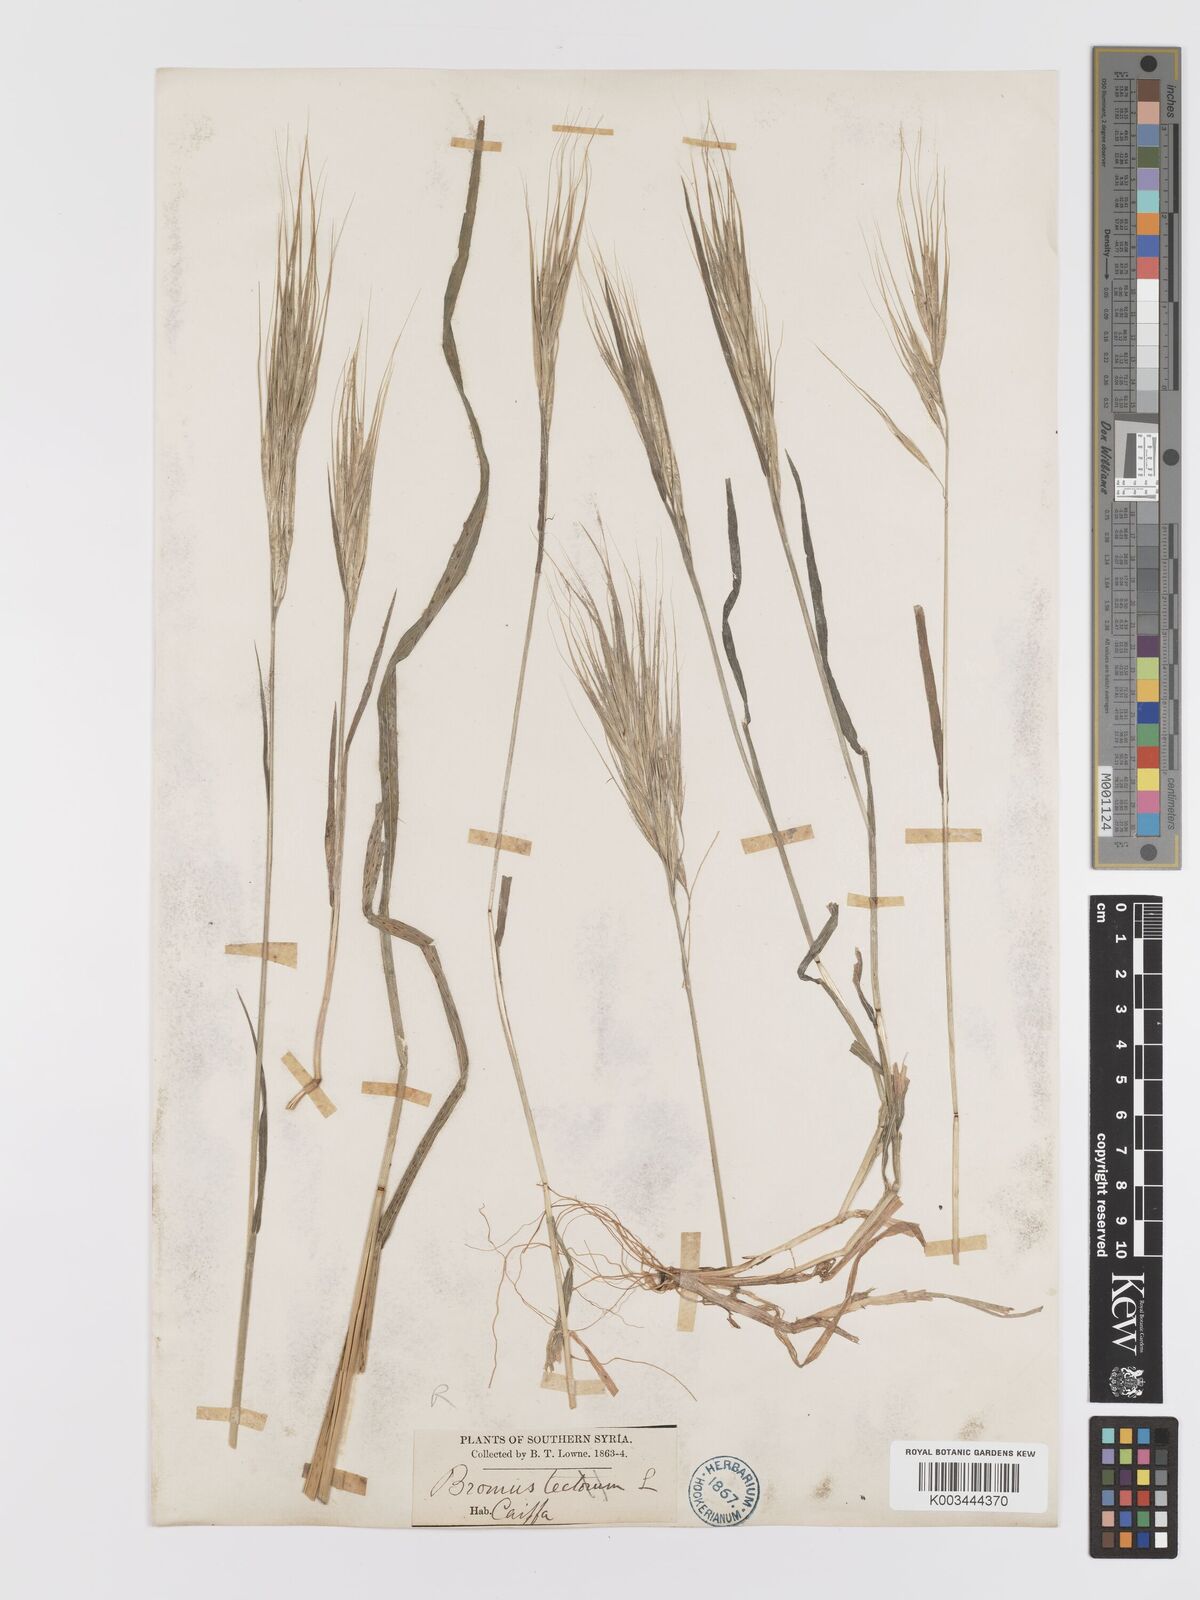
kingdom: Plantae
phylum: Tracheophyta
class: Liliopsida
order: Poales
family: Poaceae
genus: Bromus
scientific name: Bromus
